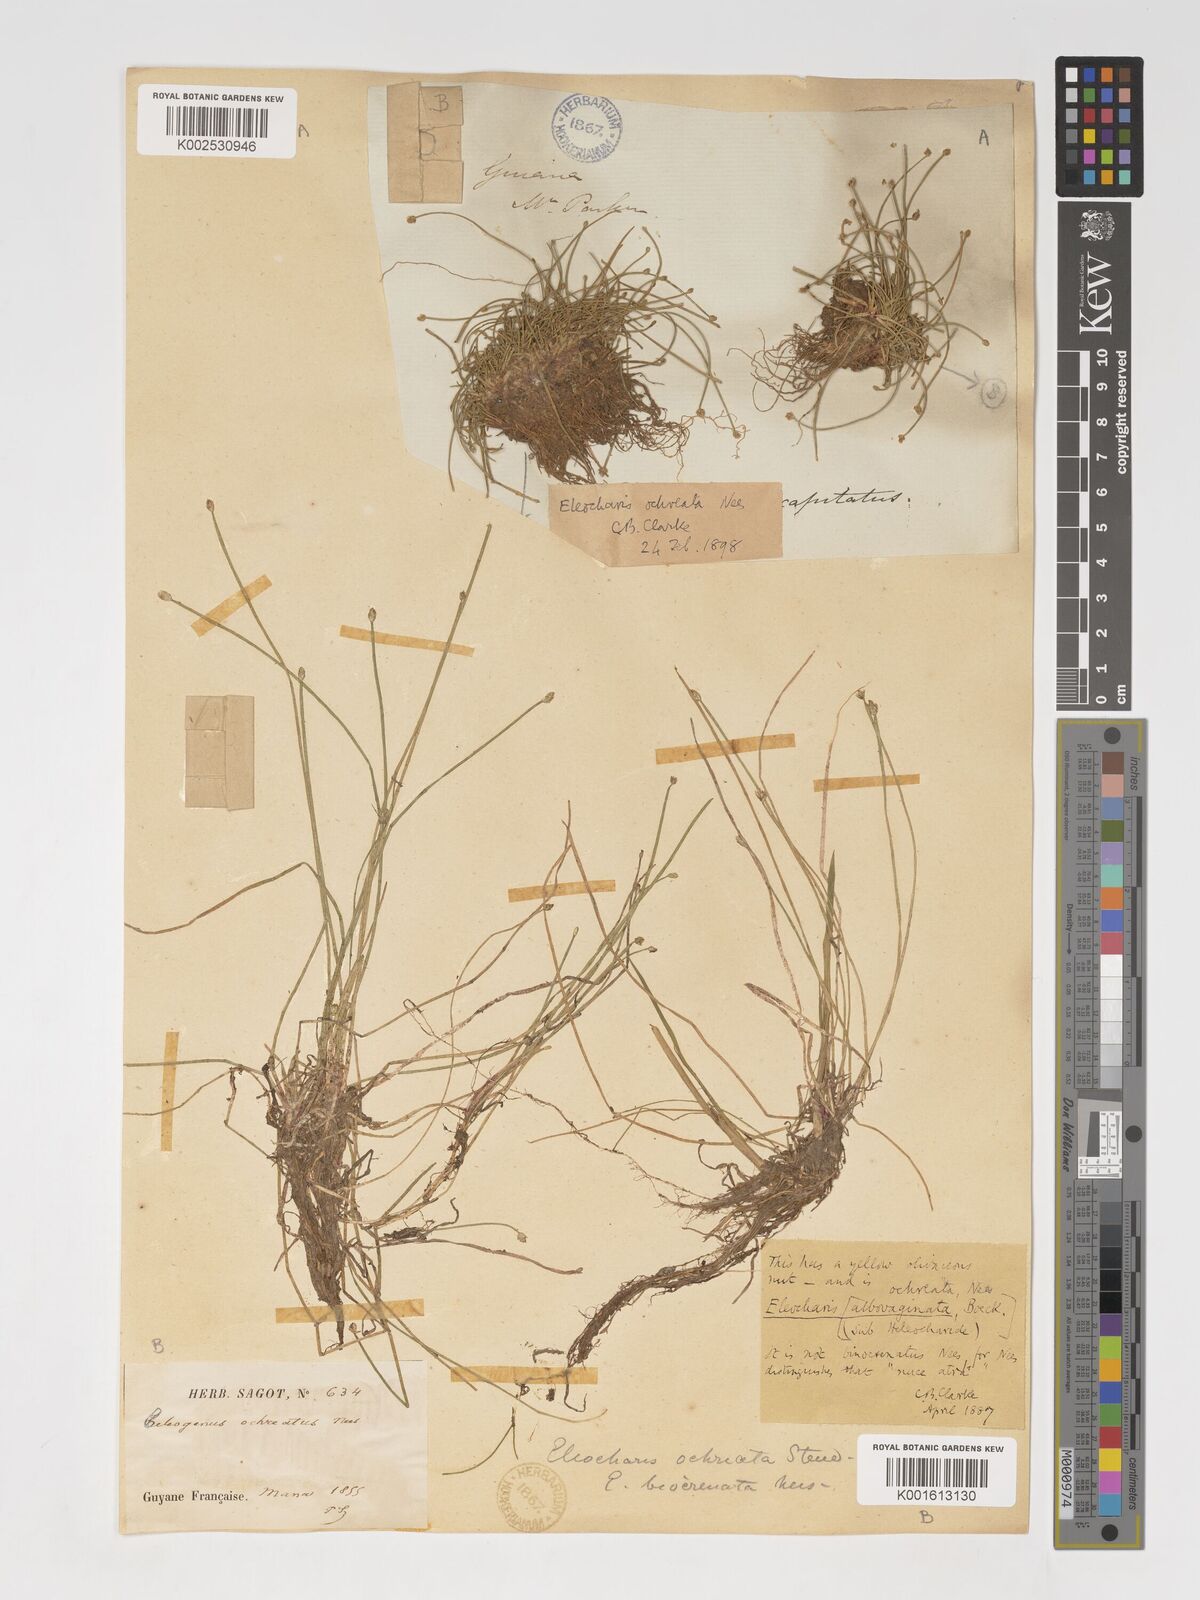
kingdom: Plantae
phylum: Tracheophyta
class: Liliopsida
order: Poales
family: Cyperaceae
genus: Eleocharis
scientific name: Eleocharis flavescens
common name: Yellow spikerush
